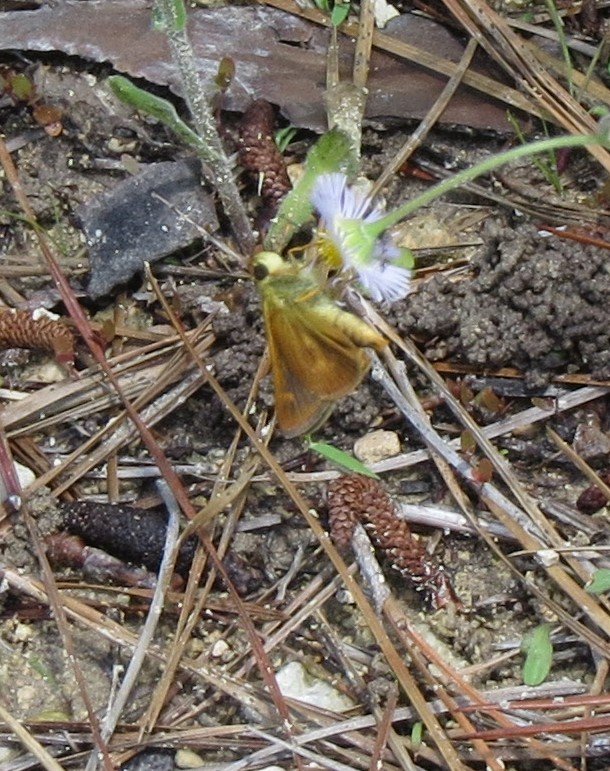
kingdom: Animalia
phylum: Arthropoda
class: Insecta
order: Lepidoptera
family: Hesperiidae
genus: Wallengrenia
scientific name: Wallengrenia otho
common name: Southern Broken-Dash
